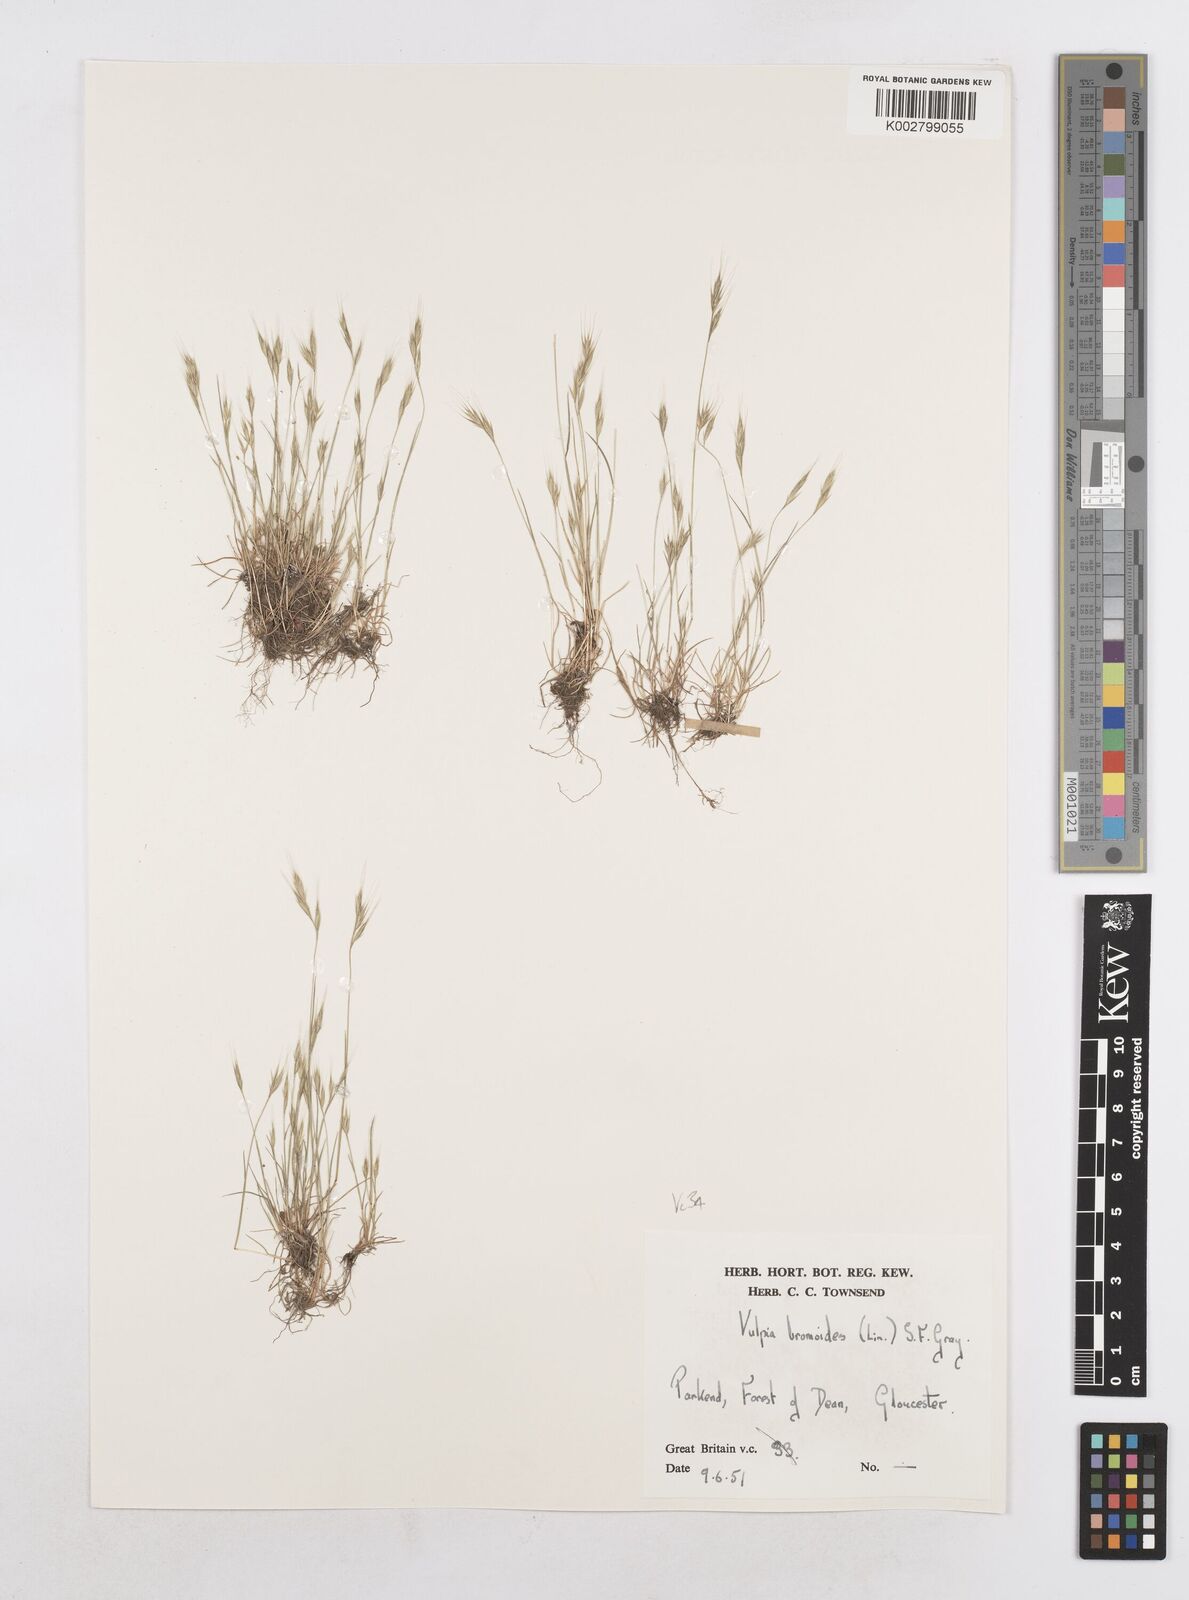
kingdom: Plantae
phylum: Tracheophyta
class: Liliopsida
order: Poales
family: Poaceae
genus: Festuca
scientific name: Festuca bromoides
